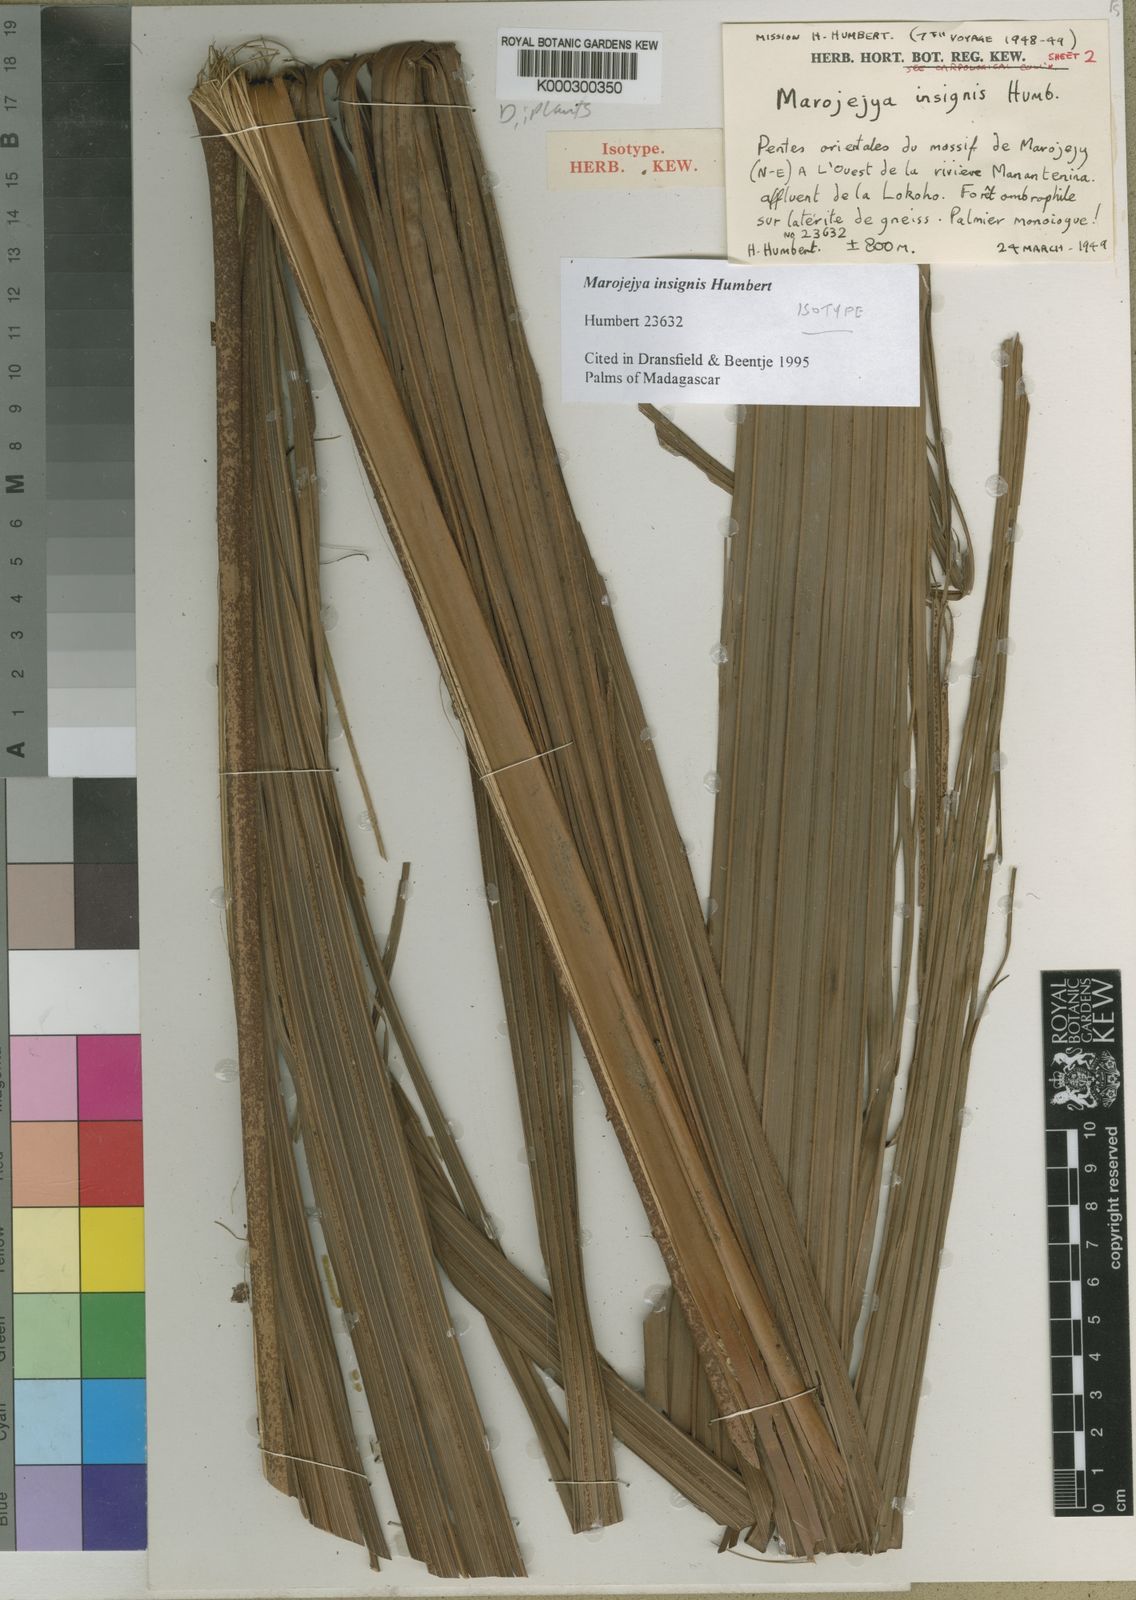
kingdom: Plantae
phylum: Tracheophyta
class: Liliopsida
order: Arecales
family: Arecaceae
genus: Marojejya
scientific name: Marojejya insignis
